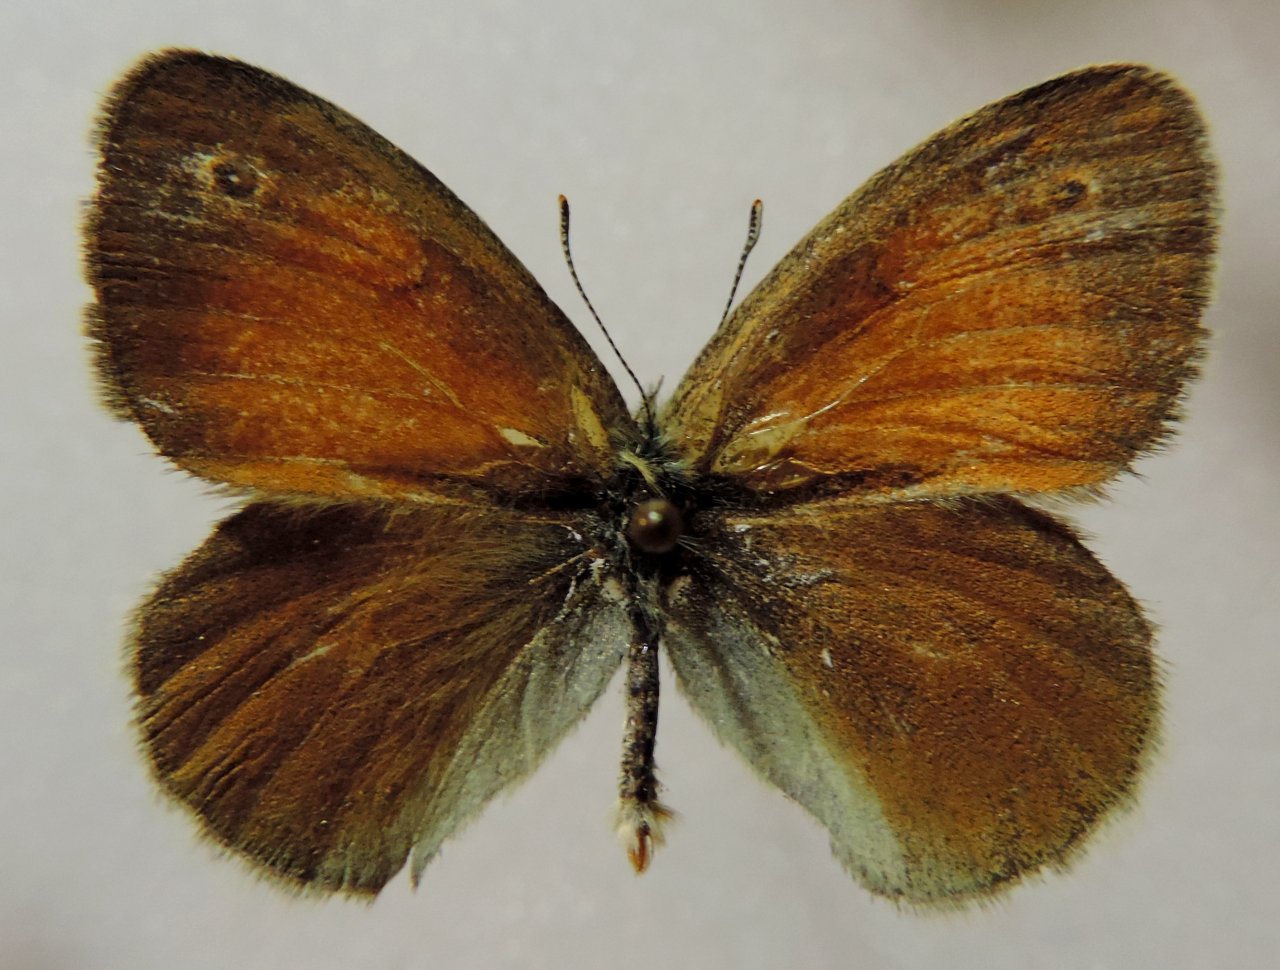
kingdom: Animalia
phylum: Arthropoda
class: Insecta
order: Lepidoptera
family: Nymphalidae
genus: Coenonympha
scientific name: Coenonympha tullia
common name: Large Heath
